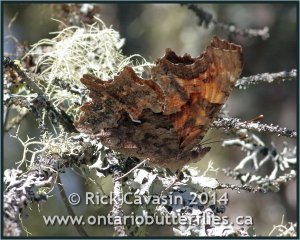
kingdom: Animalia
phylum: Arthropoda
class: Insecta
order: Lepidoptera
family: Nymphalidae
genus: Polygonia
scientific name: Polygonia faunus
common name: Green Comma
